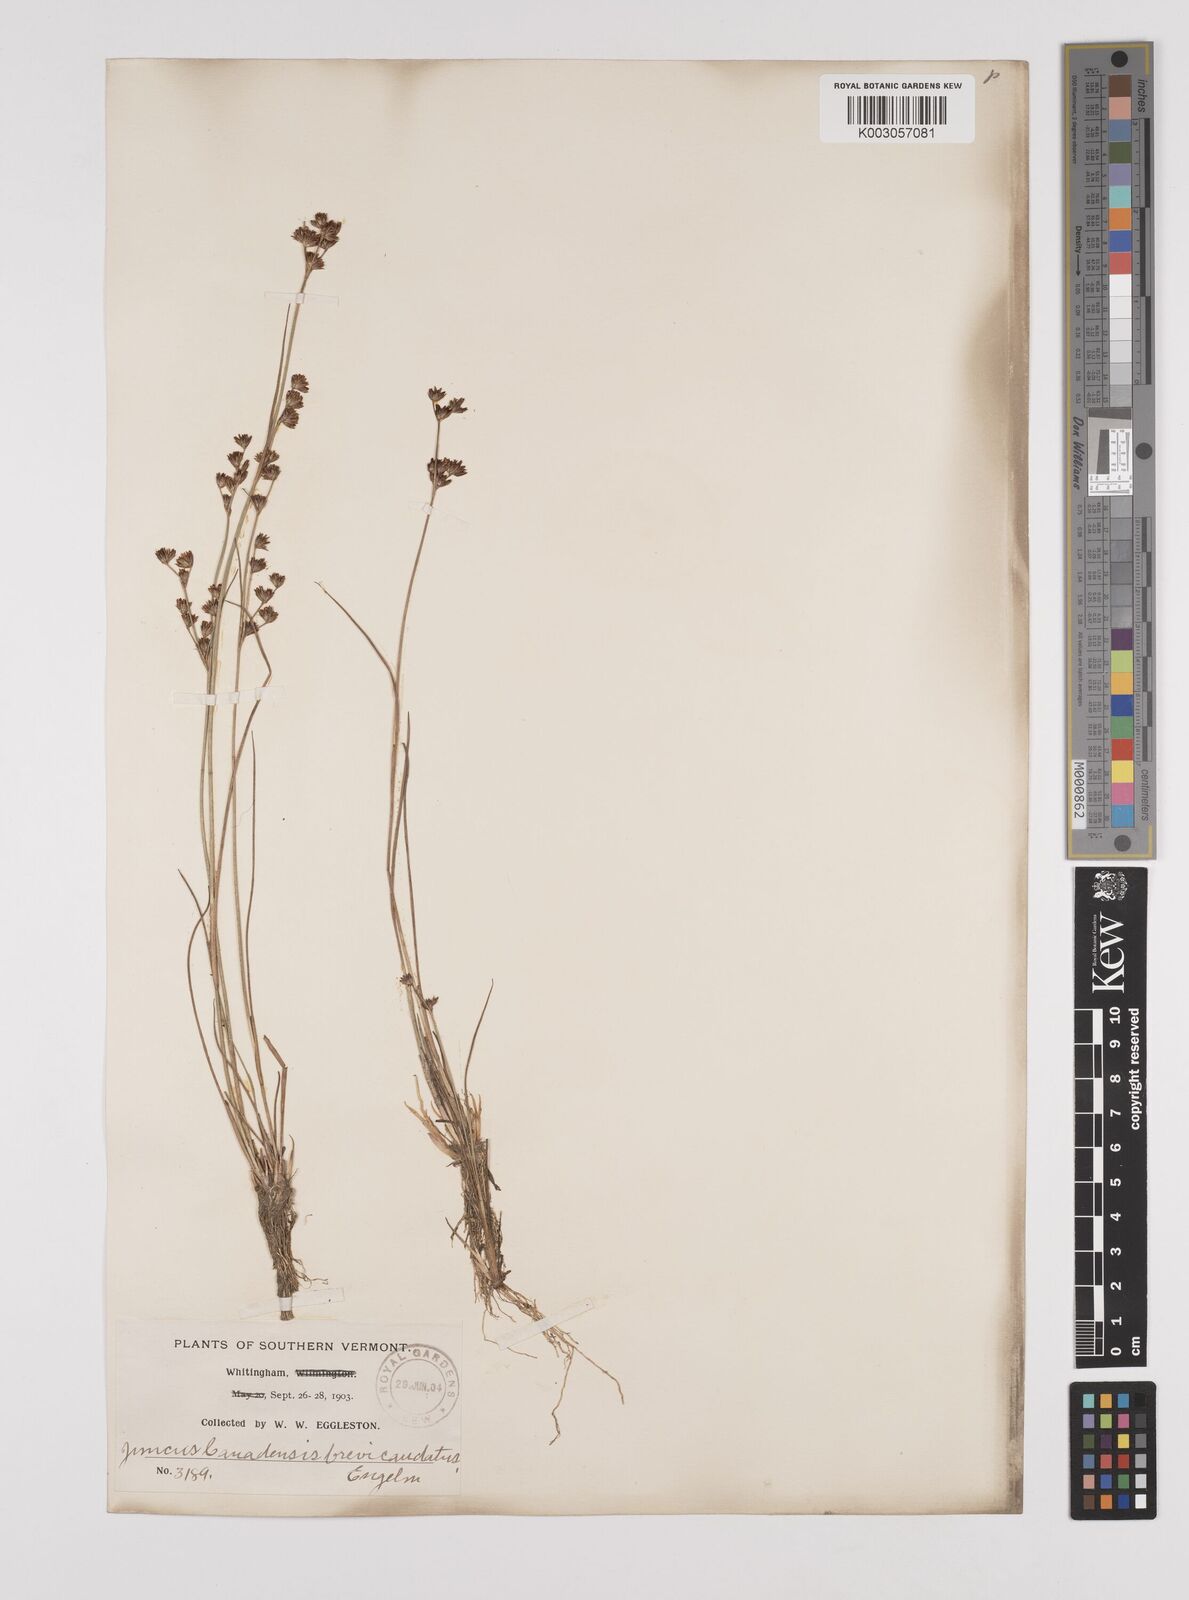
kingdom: Plantae
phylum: Tracheophyta
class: Liliopsida
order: Poales
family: Juncaceae
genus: Juncus
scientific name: Juncus canadensis
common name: Canada rush
